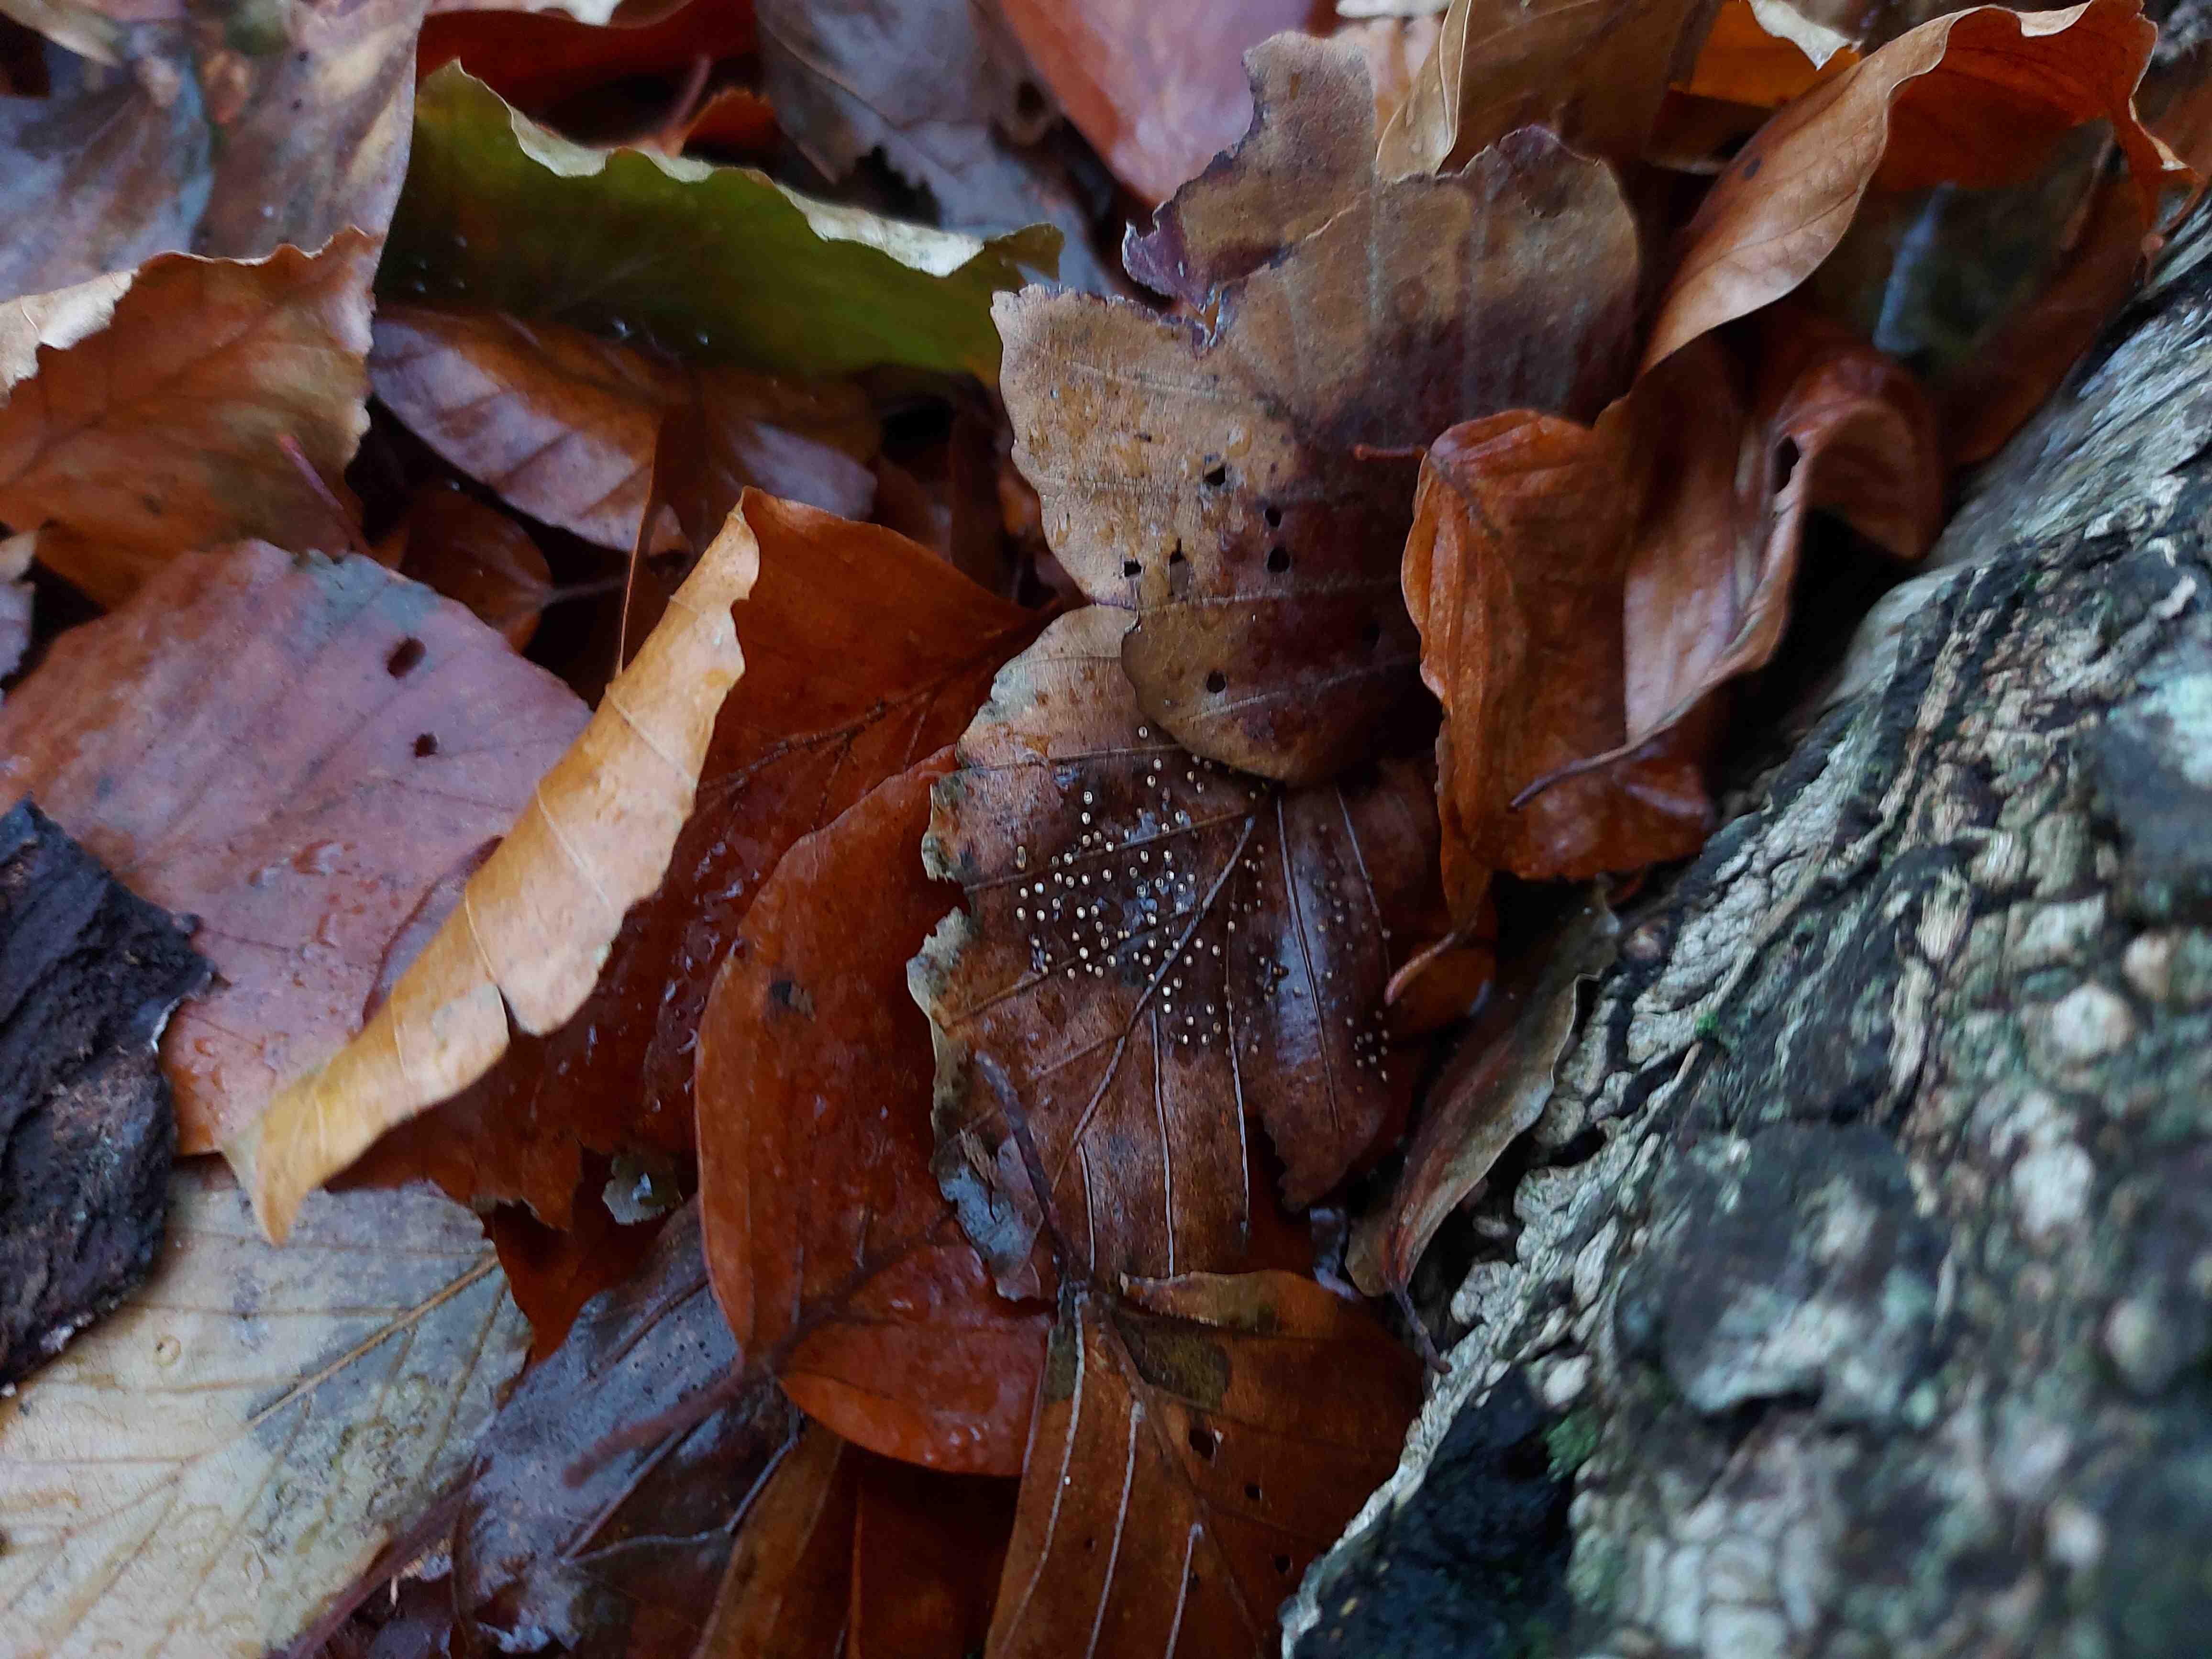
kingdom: Protozoa
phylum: Mycetozoa
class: Myxomycetes
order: Physarales
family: Physaraceae
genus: Craterium
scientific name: Craterium minutum
